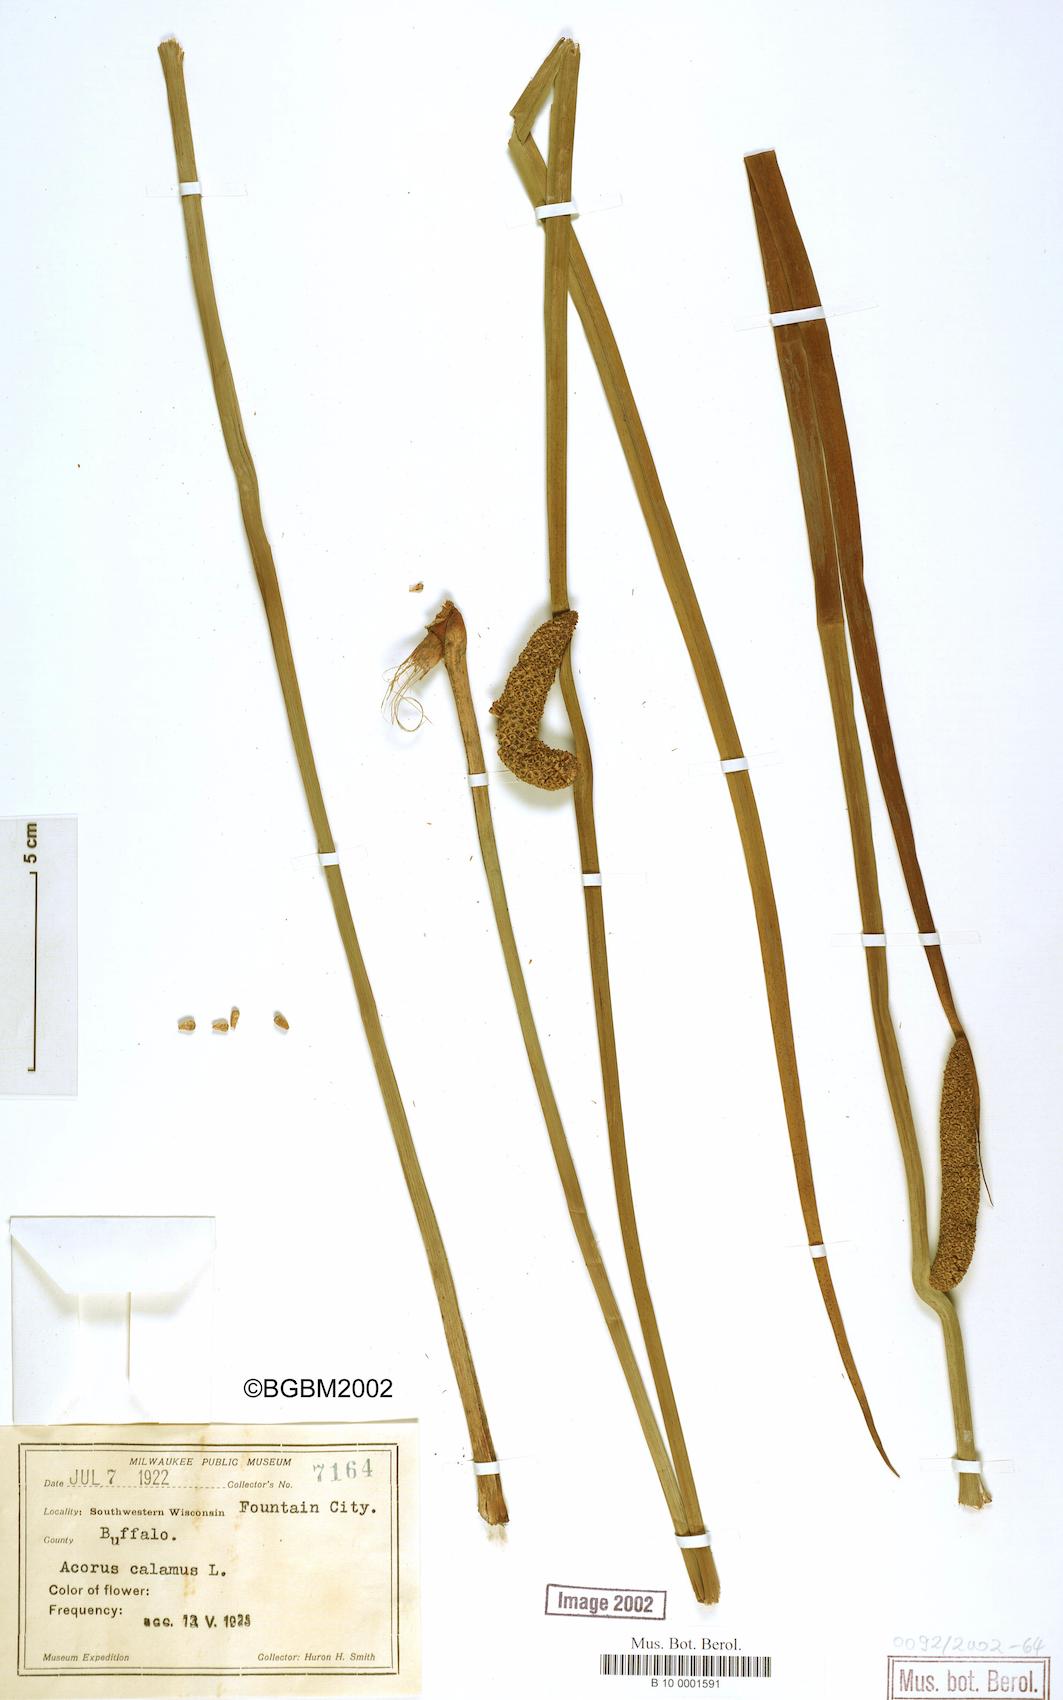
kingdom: Plantae
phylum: Tracheophyta
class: Liliopsida
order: Acorales
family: Acoraceae
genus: Acorus
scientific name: Acorus calamus
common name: Sweet-flag
